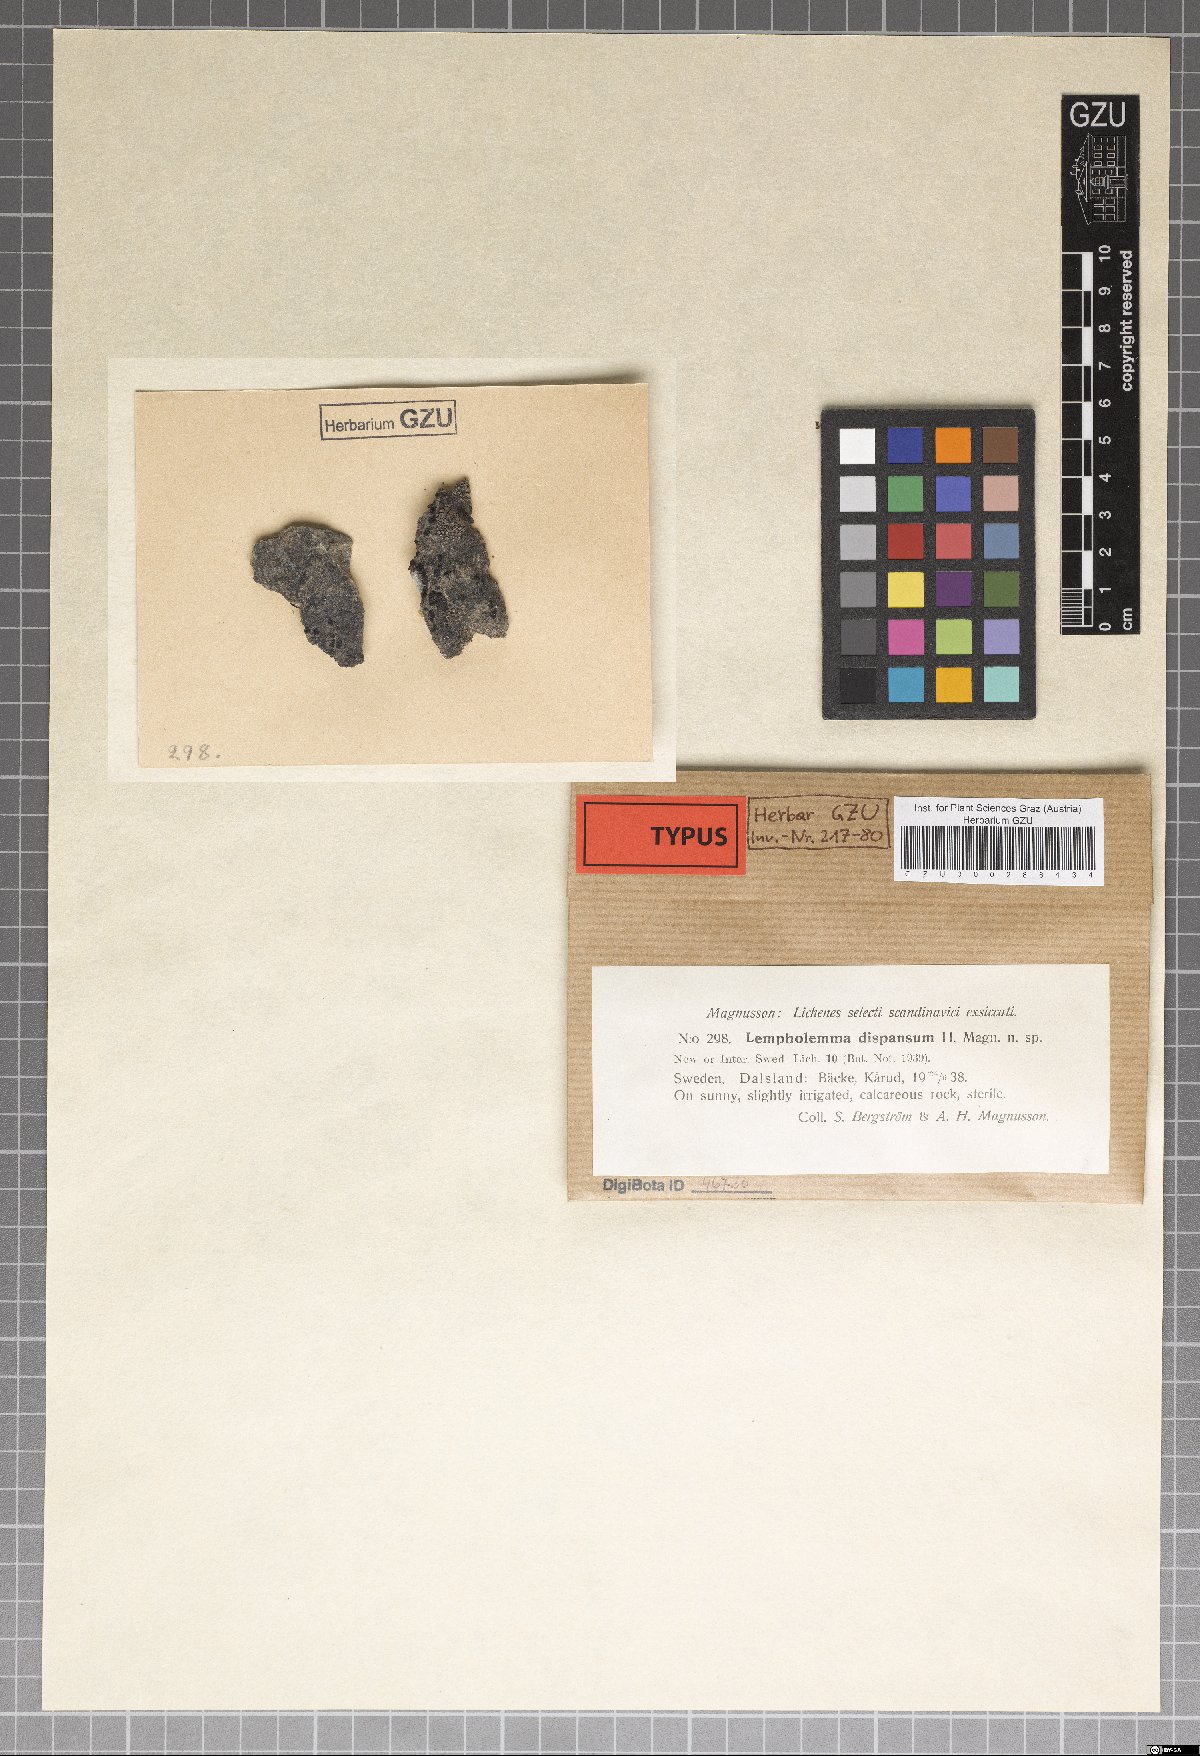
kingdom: Fungi
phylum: Ascomycota
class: Lichinomycetes
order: Lichinales
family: Lichinaceae
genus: Lempholemma
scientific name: Lempholemma dispansum
